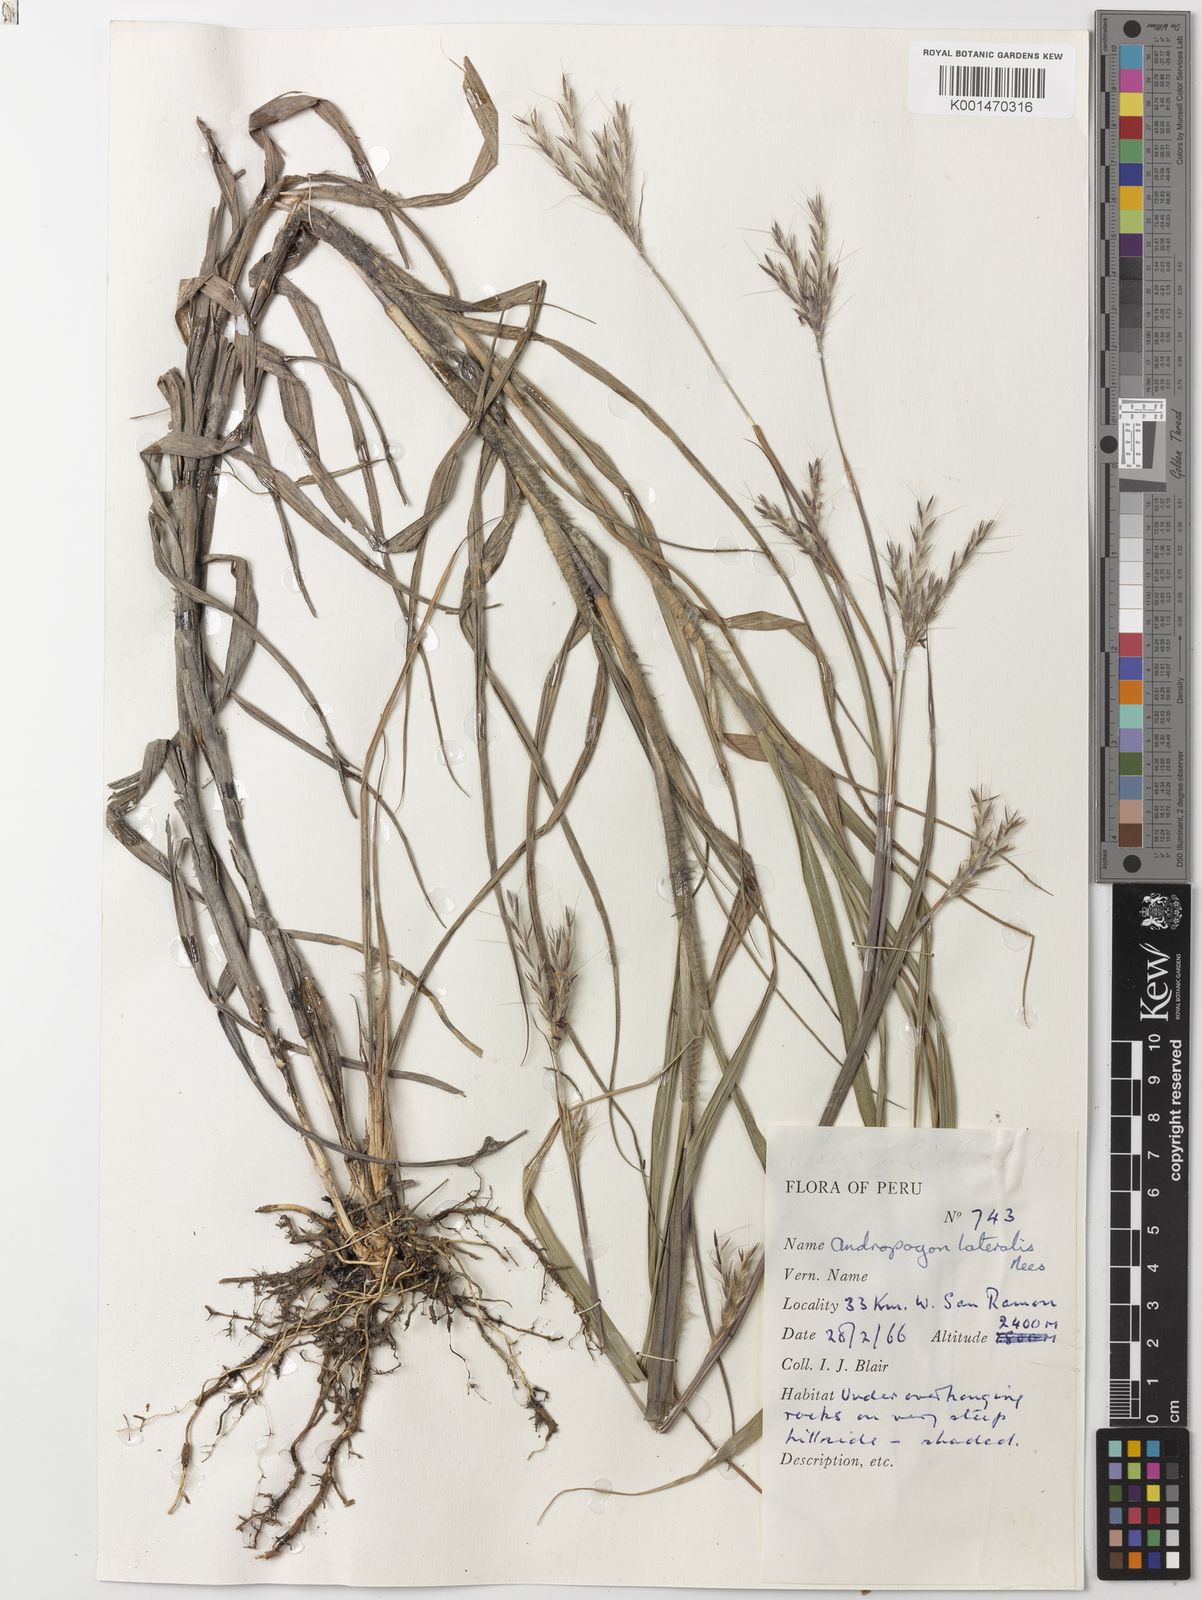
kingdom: Plantae
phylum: Tracheophyta
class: Liliopsida
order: Poales
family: Poaceae
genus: Andropogon
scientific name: Andropogon lateralis
